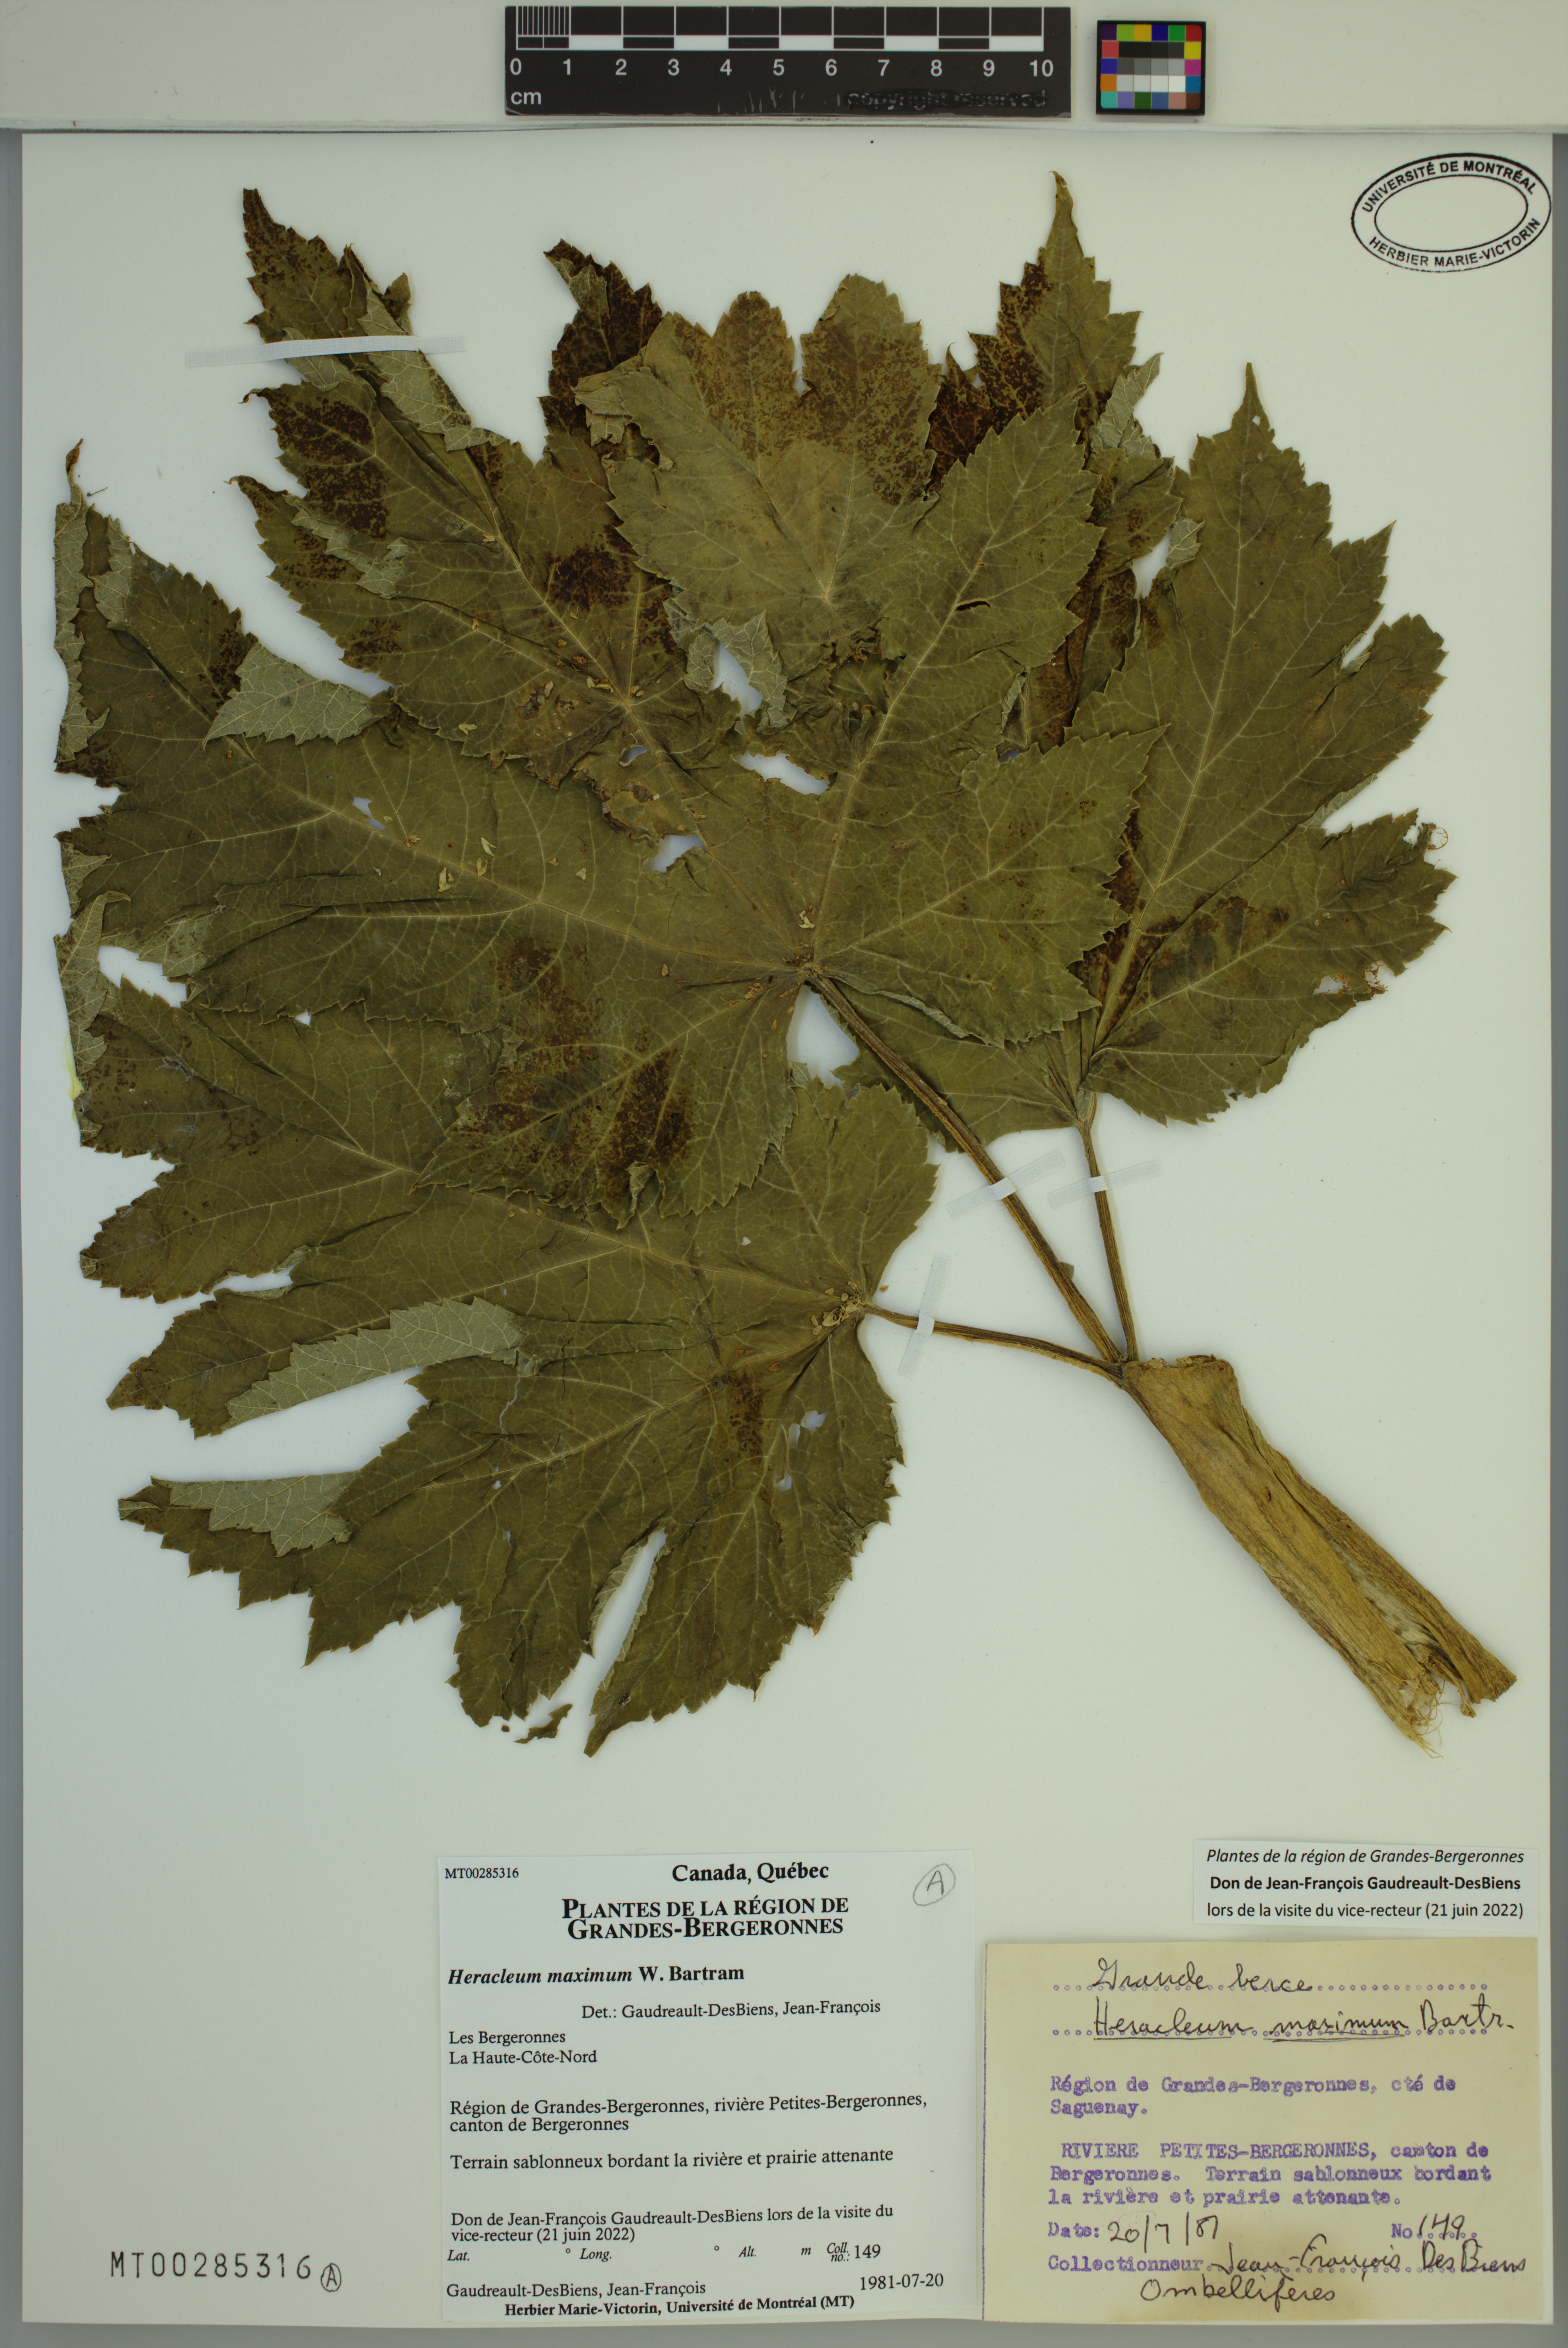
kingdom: Plantae
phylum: Tracheophyta
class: Magnoliopsida
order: Apiales
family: Apiaceae
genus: Heracleum
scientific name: Heracleum maximum
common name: American cow parsnip
